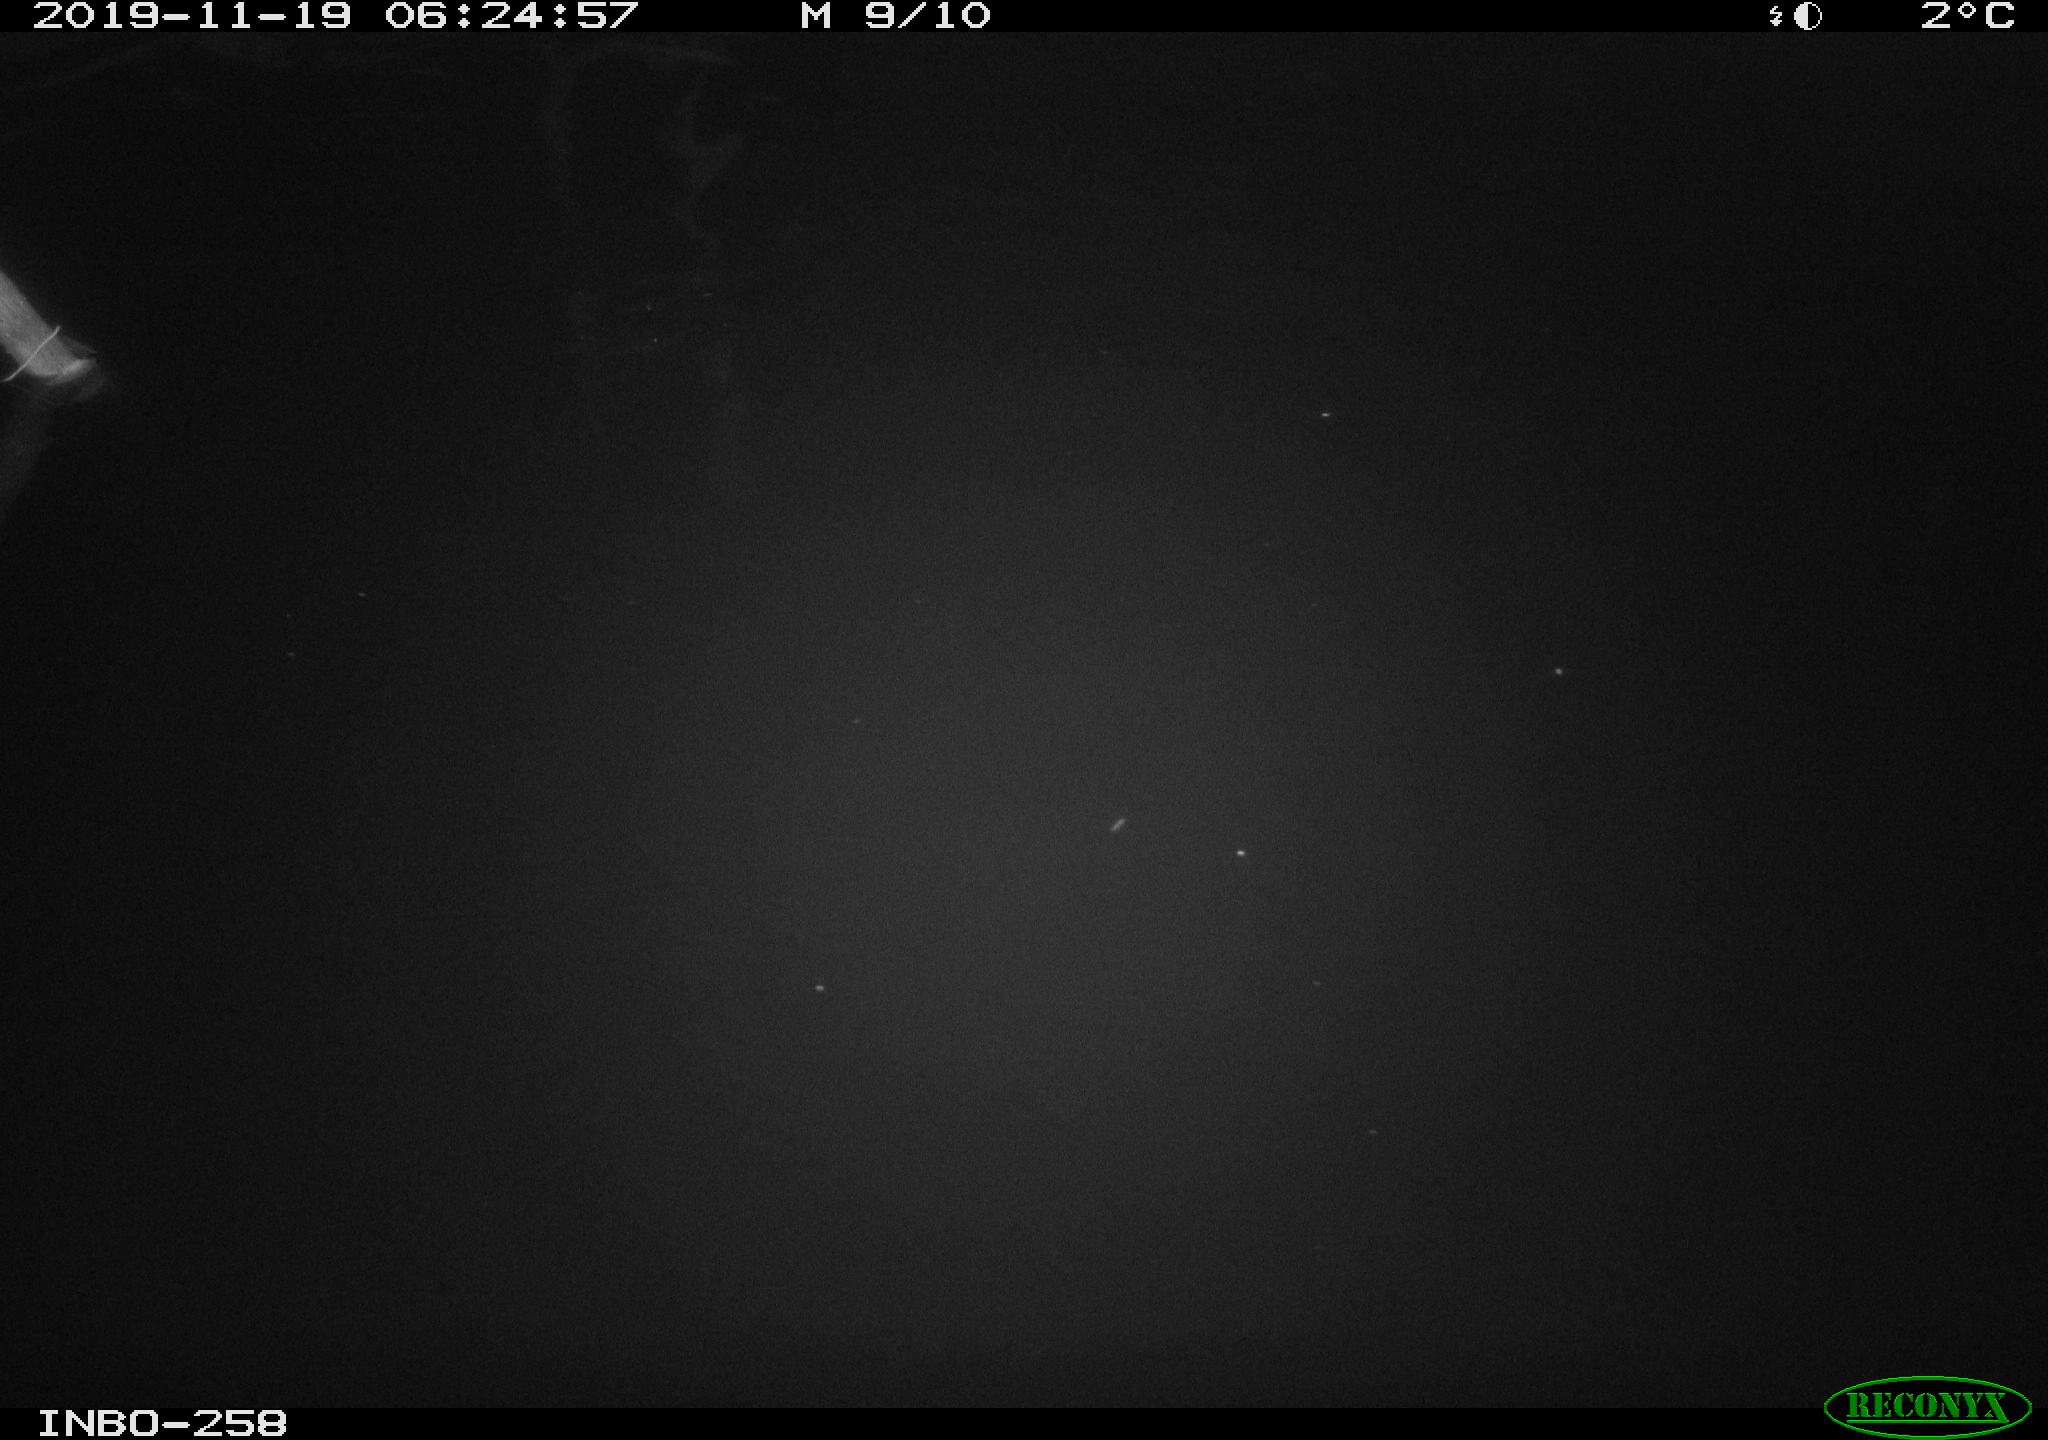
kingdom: Animalia
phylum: Chordata
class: Mammalia
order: Rodentia
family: Muridae
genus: Rattus
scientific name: Rattus norvegicus
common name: Brown rat
